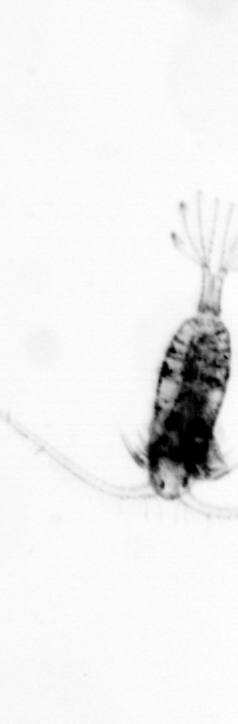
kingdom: Animalia
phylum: Arthropoda
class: Copepoda
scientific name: Copepoda
